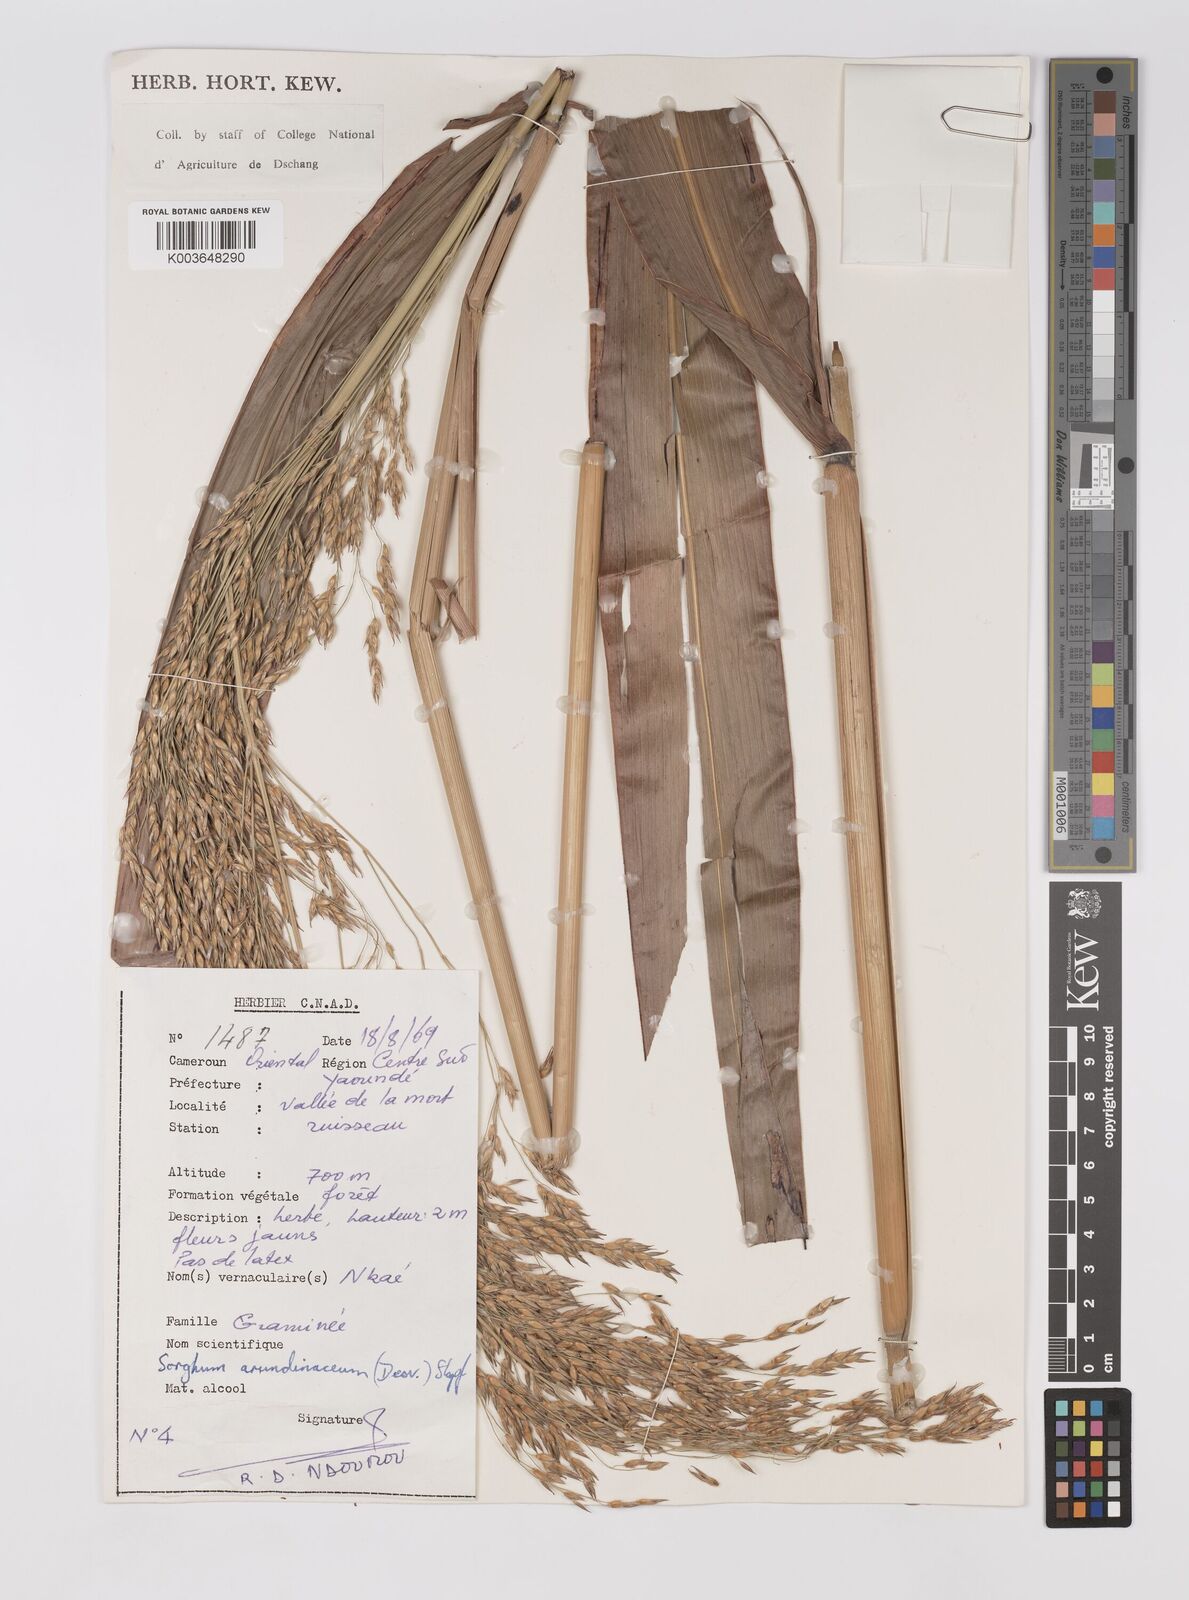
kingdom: Plantae
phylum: Tracheophyta
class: Liliopsida
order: Poales
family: Poaceae
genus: Sorghum
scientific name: Sorghum arundinaceum
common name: Sorghum
